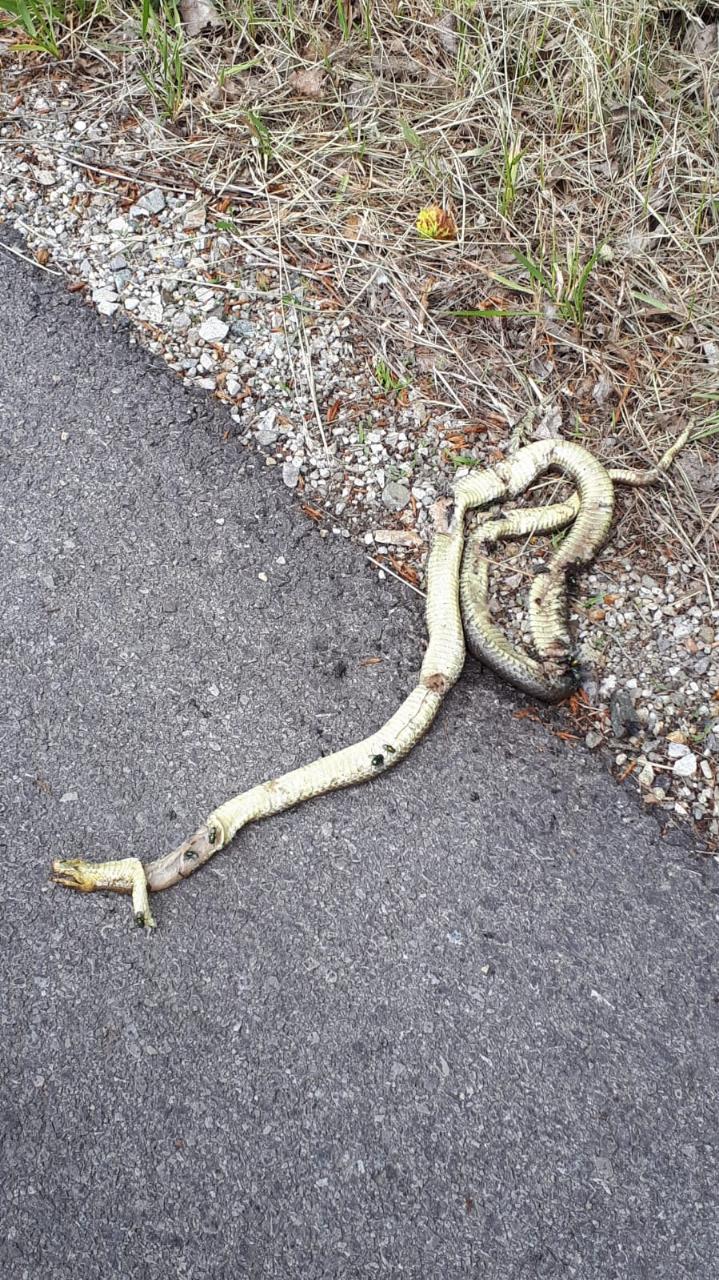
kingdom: Animalia
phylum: Chordata
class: Squamata
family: Colubridae
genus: Zamenis
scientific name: Zamenis longissimus
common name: Aesculapean snake
